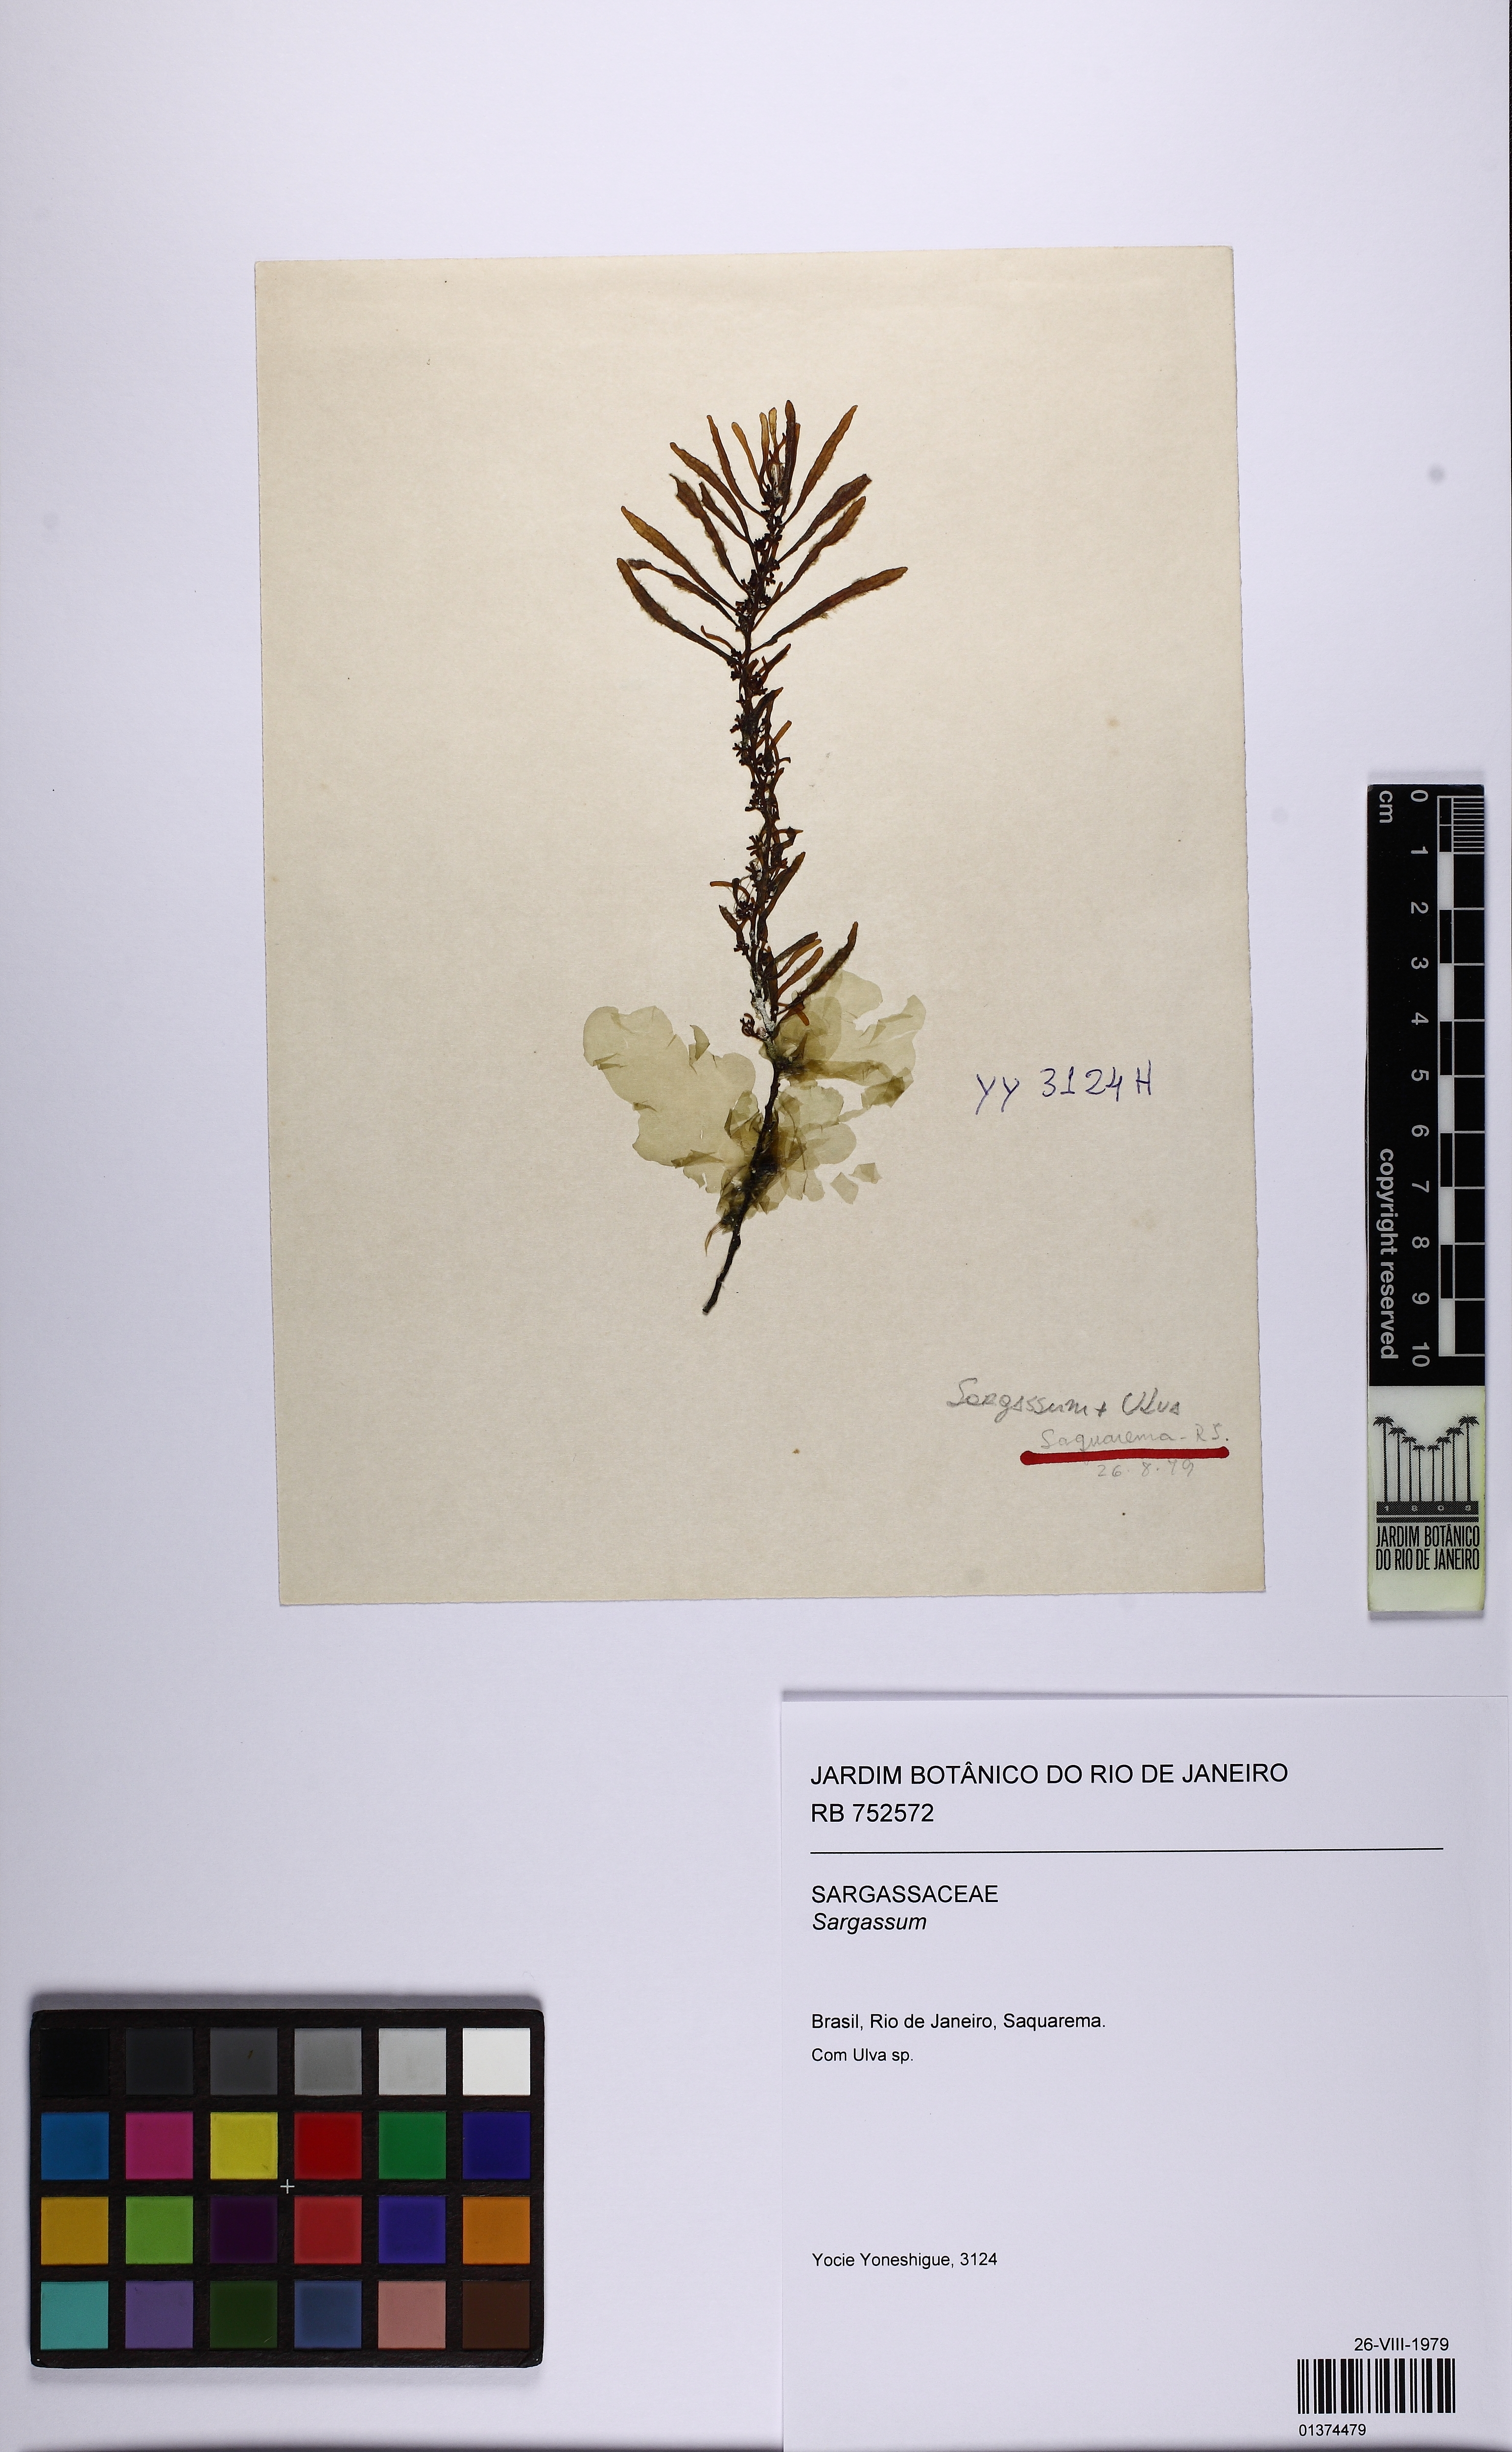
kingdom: Chromista
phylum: Ochrophyta
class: Phaeophyceae
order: Fucales
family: Sargassaceae
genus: Sargassum
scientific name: Sargassum
